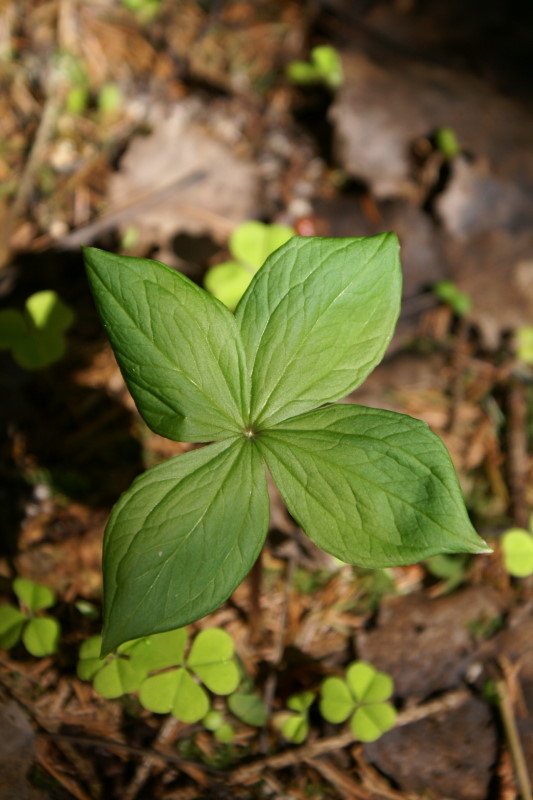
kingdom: Plantae
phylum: Tracheophyta
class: Liliopsida
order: Liliales
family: Melanthiaceae
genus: Paris
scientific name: Paris quadrifolia
